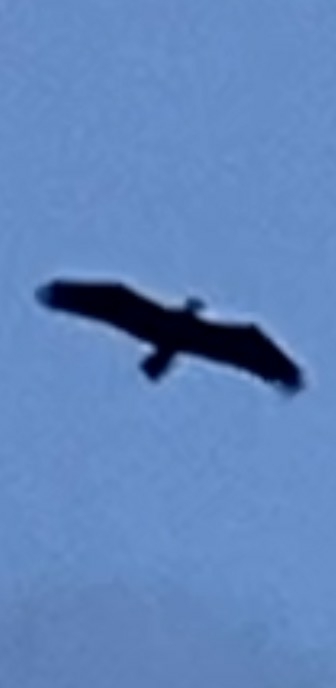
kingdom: Animalia
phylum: Chordata
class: Aves
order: Accipitriformes
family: Accipitridae
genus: Haliaeetus
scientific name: Haliaeetus albicilla
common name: Havørn
